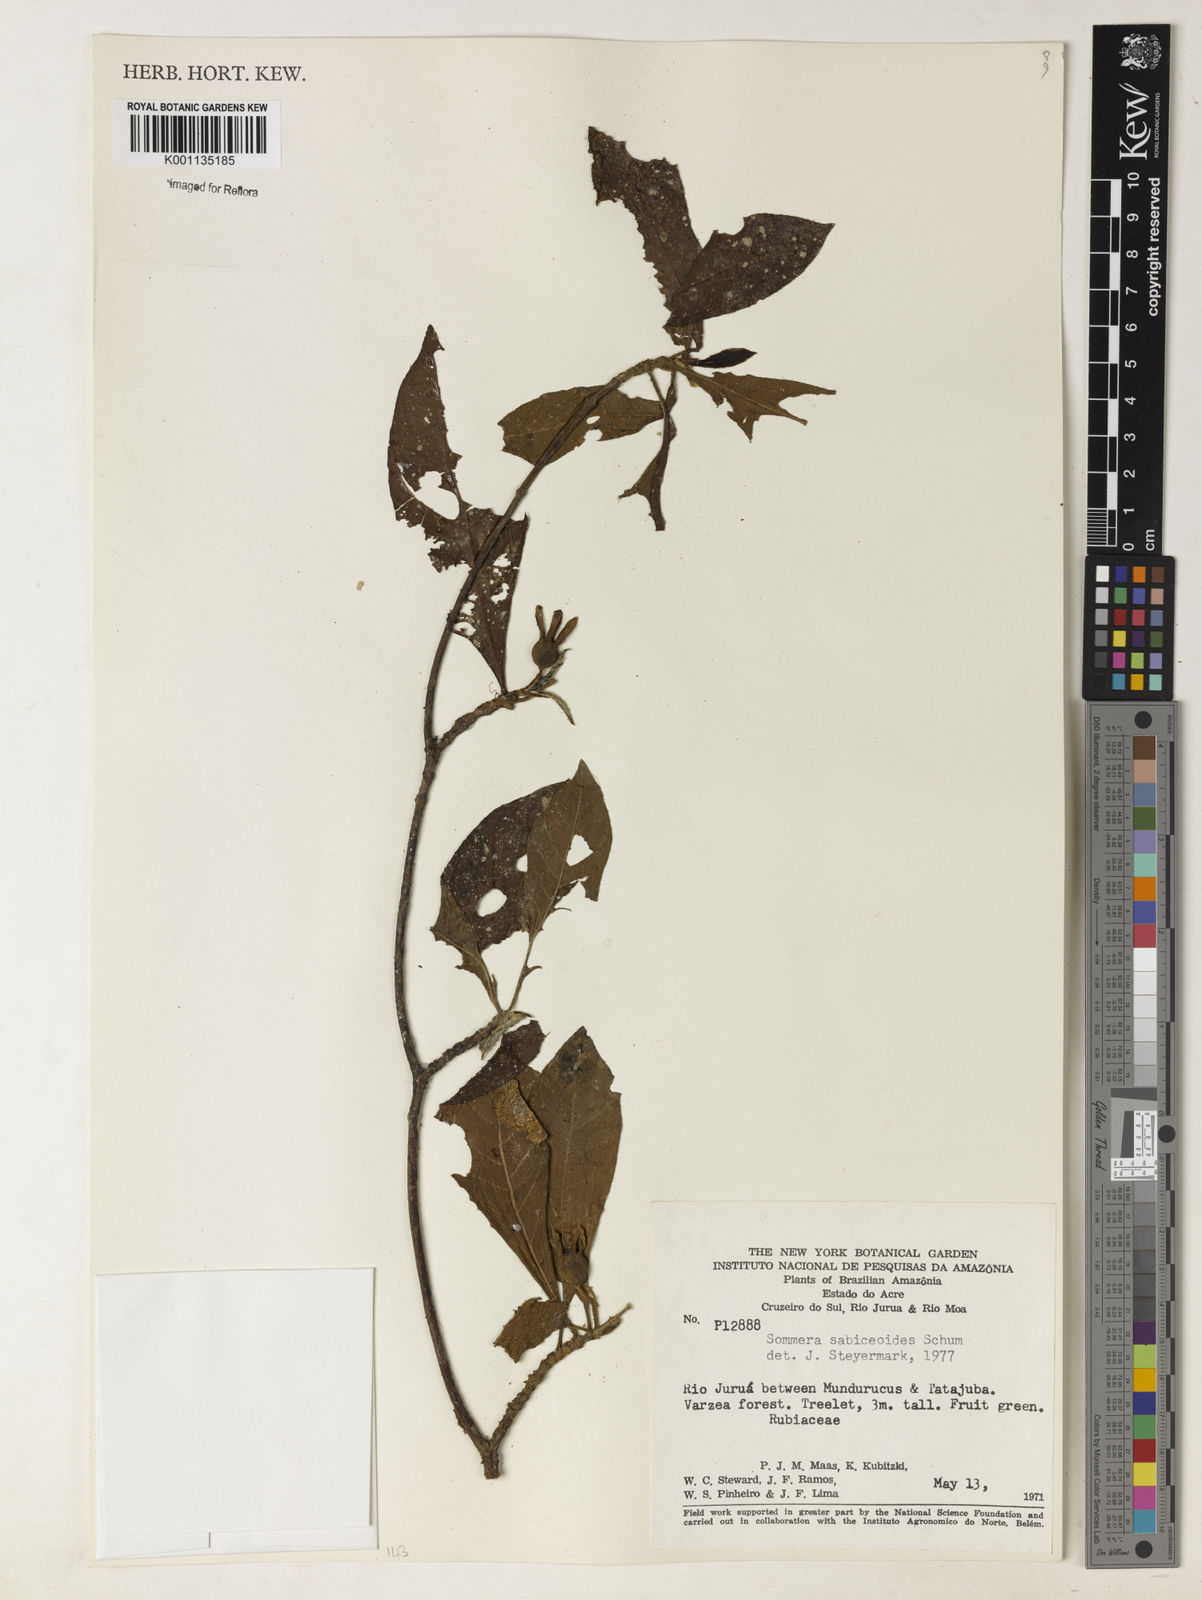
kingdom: Plantae
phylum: Tracheophyta
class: Magnoliopsida
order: Gentianales
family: Rubiaceae
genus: Sommera
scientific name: Sommera sabiceoides
